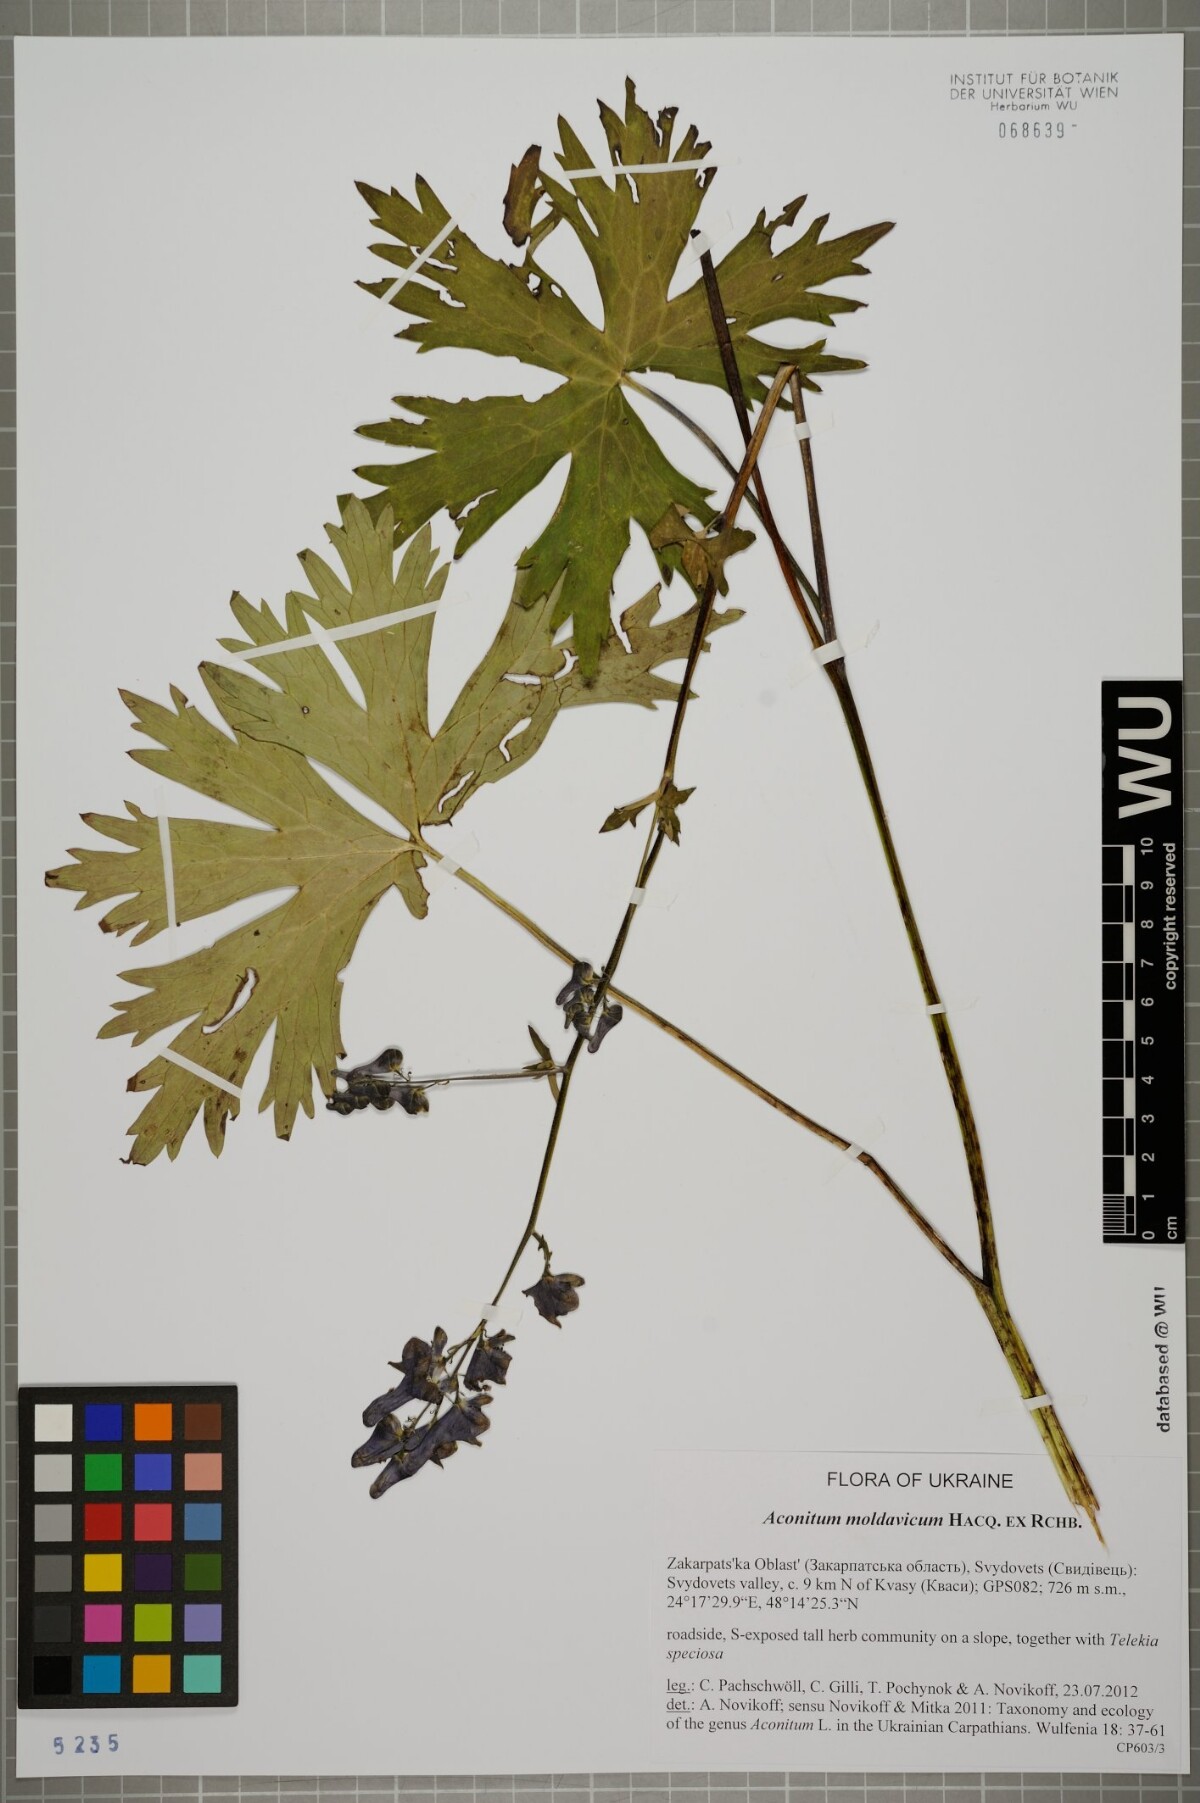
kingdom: Plantae
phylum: Tracheophyta
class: Magnoliopsida
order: Ranunculales
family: Ranunculaceae
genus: Aconitum
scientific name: Aconitum lycoctonum
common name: Wolf's-bane
